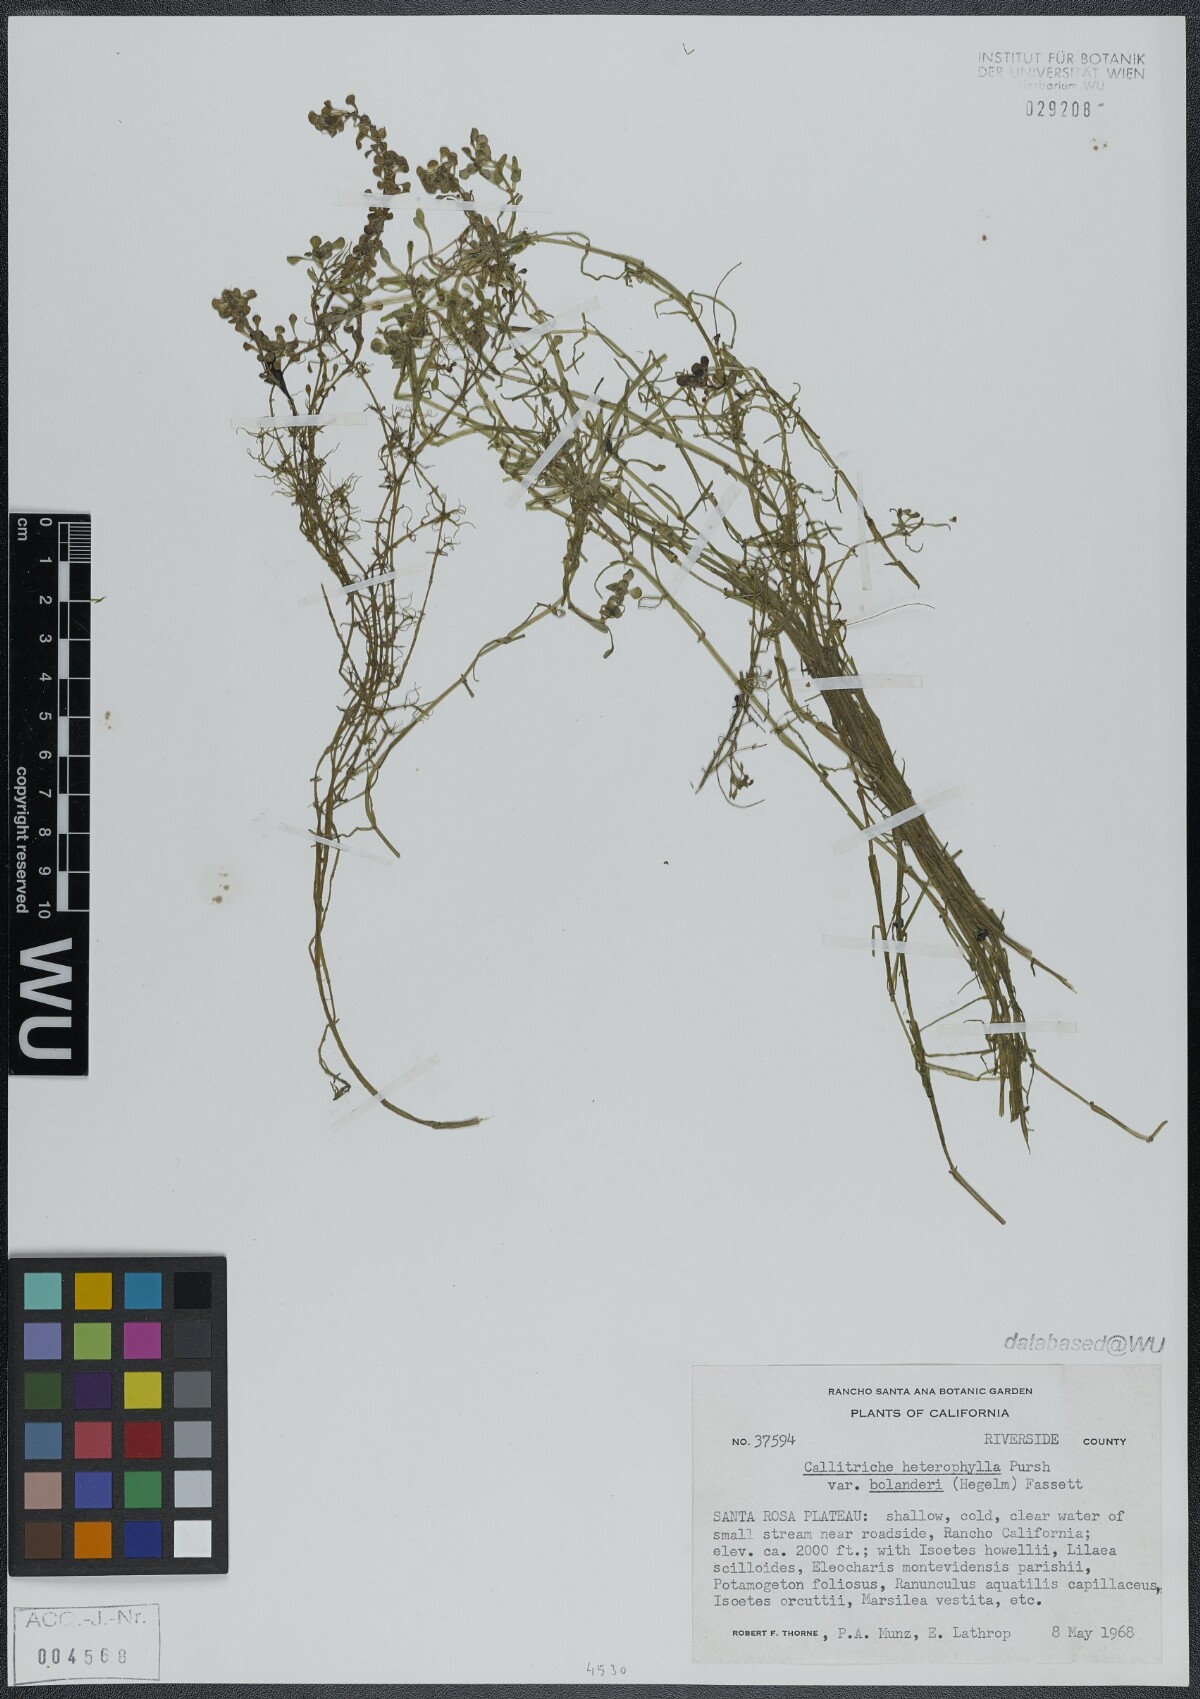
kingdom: Plantae
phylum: Tracheophyta
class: Magnoliopsida
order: Lamiales
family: Plantaginaceae
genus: Callitriche
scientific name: Callitriche heterophylla
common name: Two-headed water-starwort
